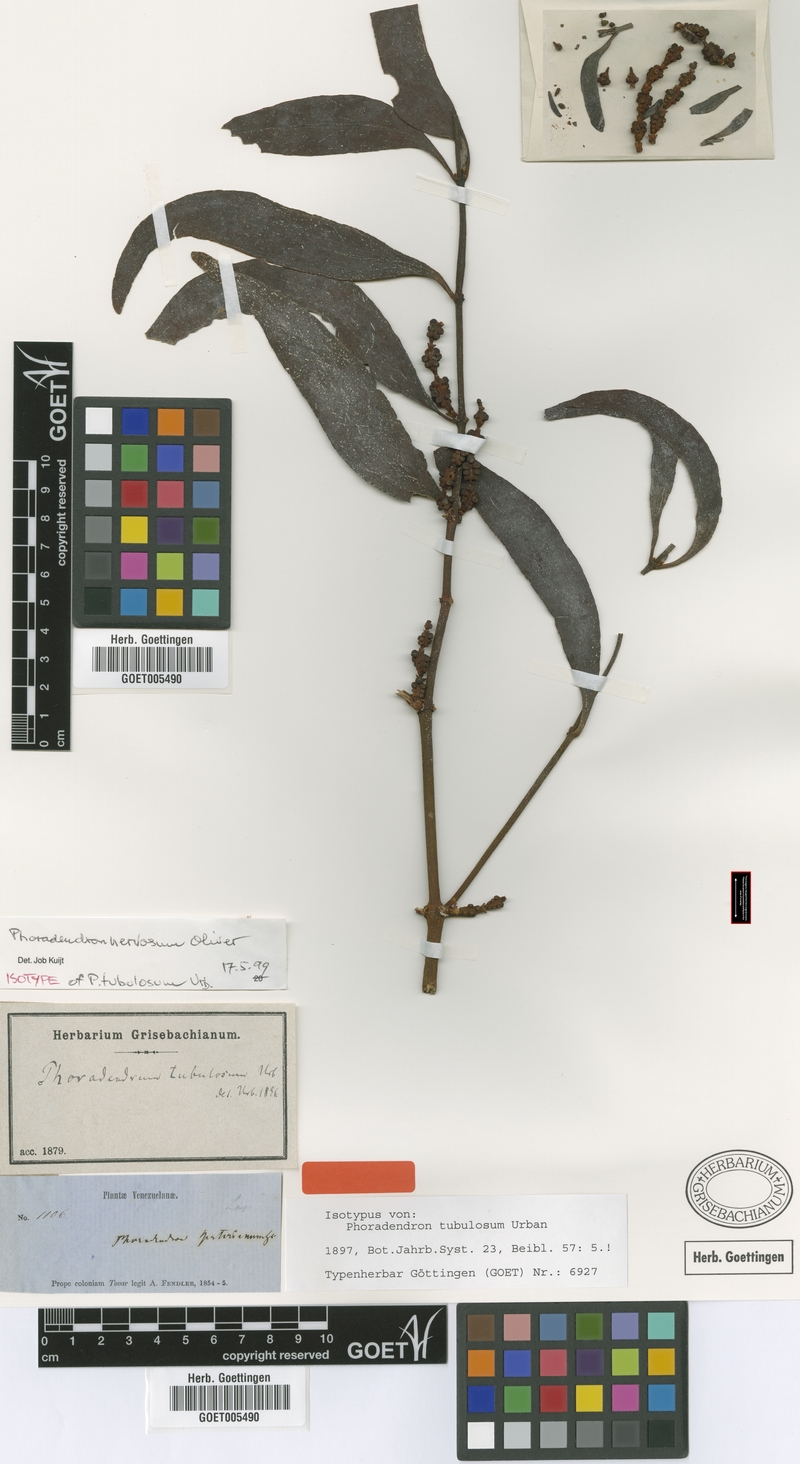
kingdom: Plantae
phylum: Tracheophyta
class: Magnoliopsida
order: Santalales
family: Viscaceae
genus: Phoradendron
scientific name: Phoradendron nervosum
